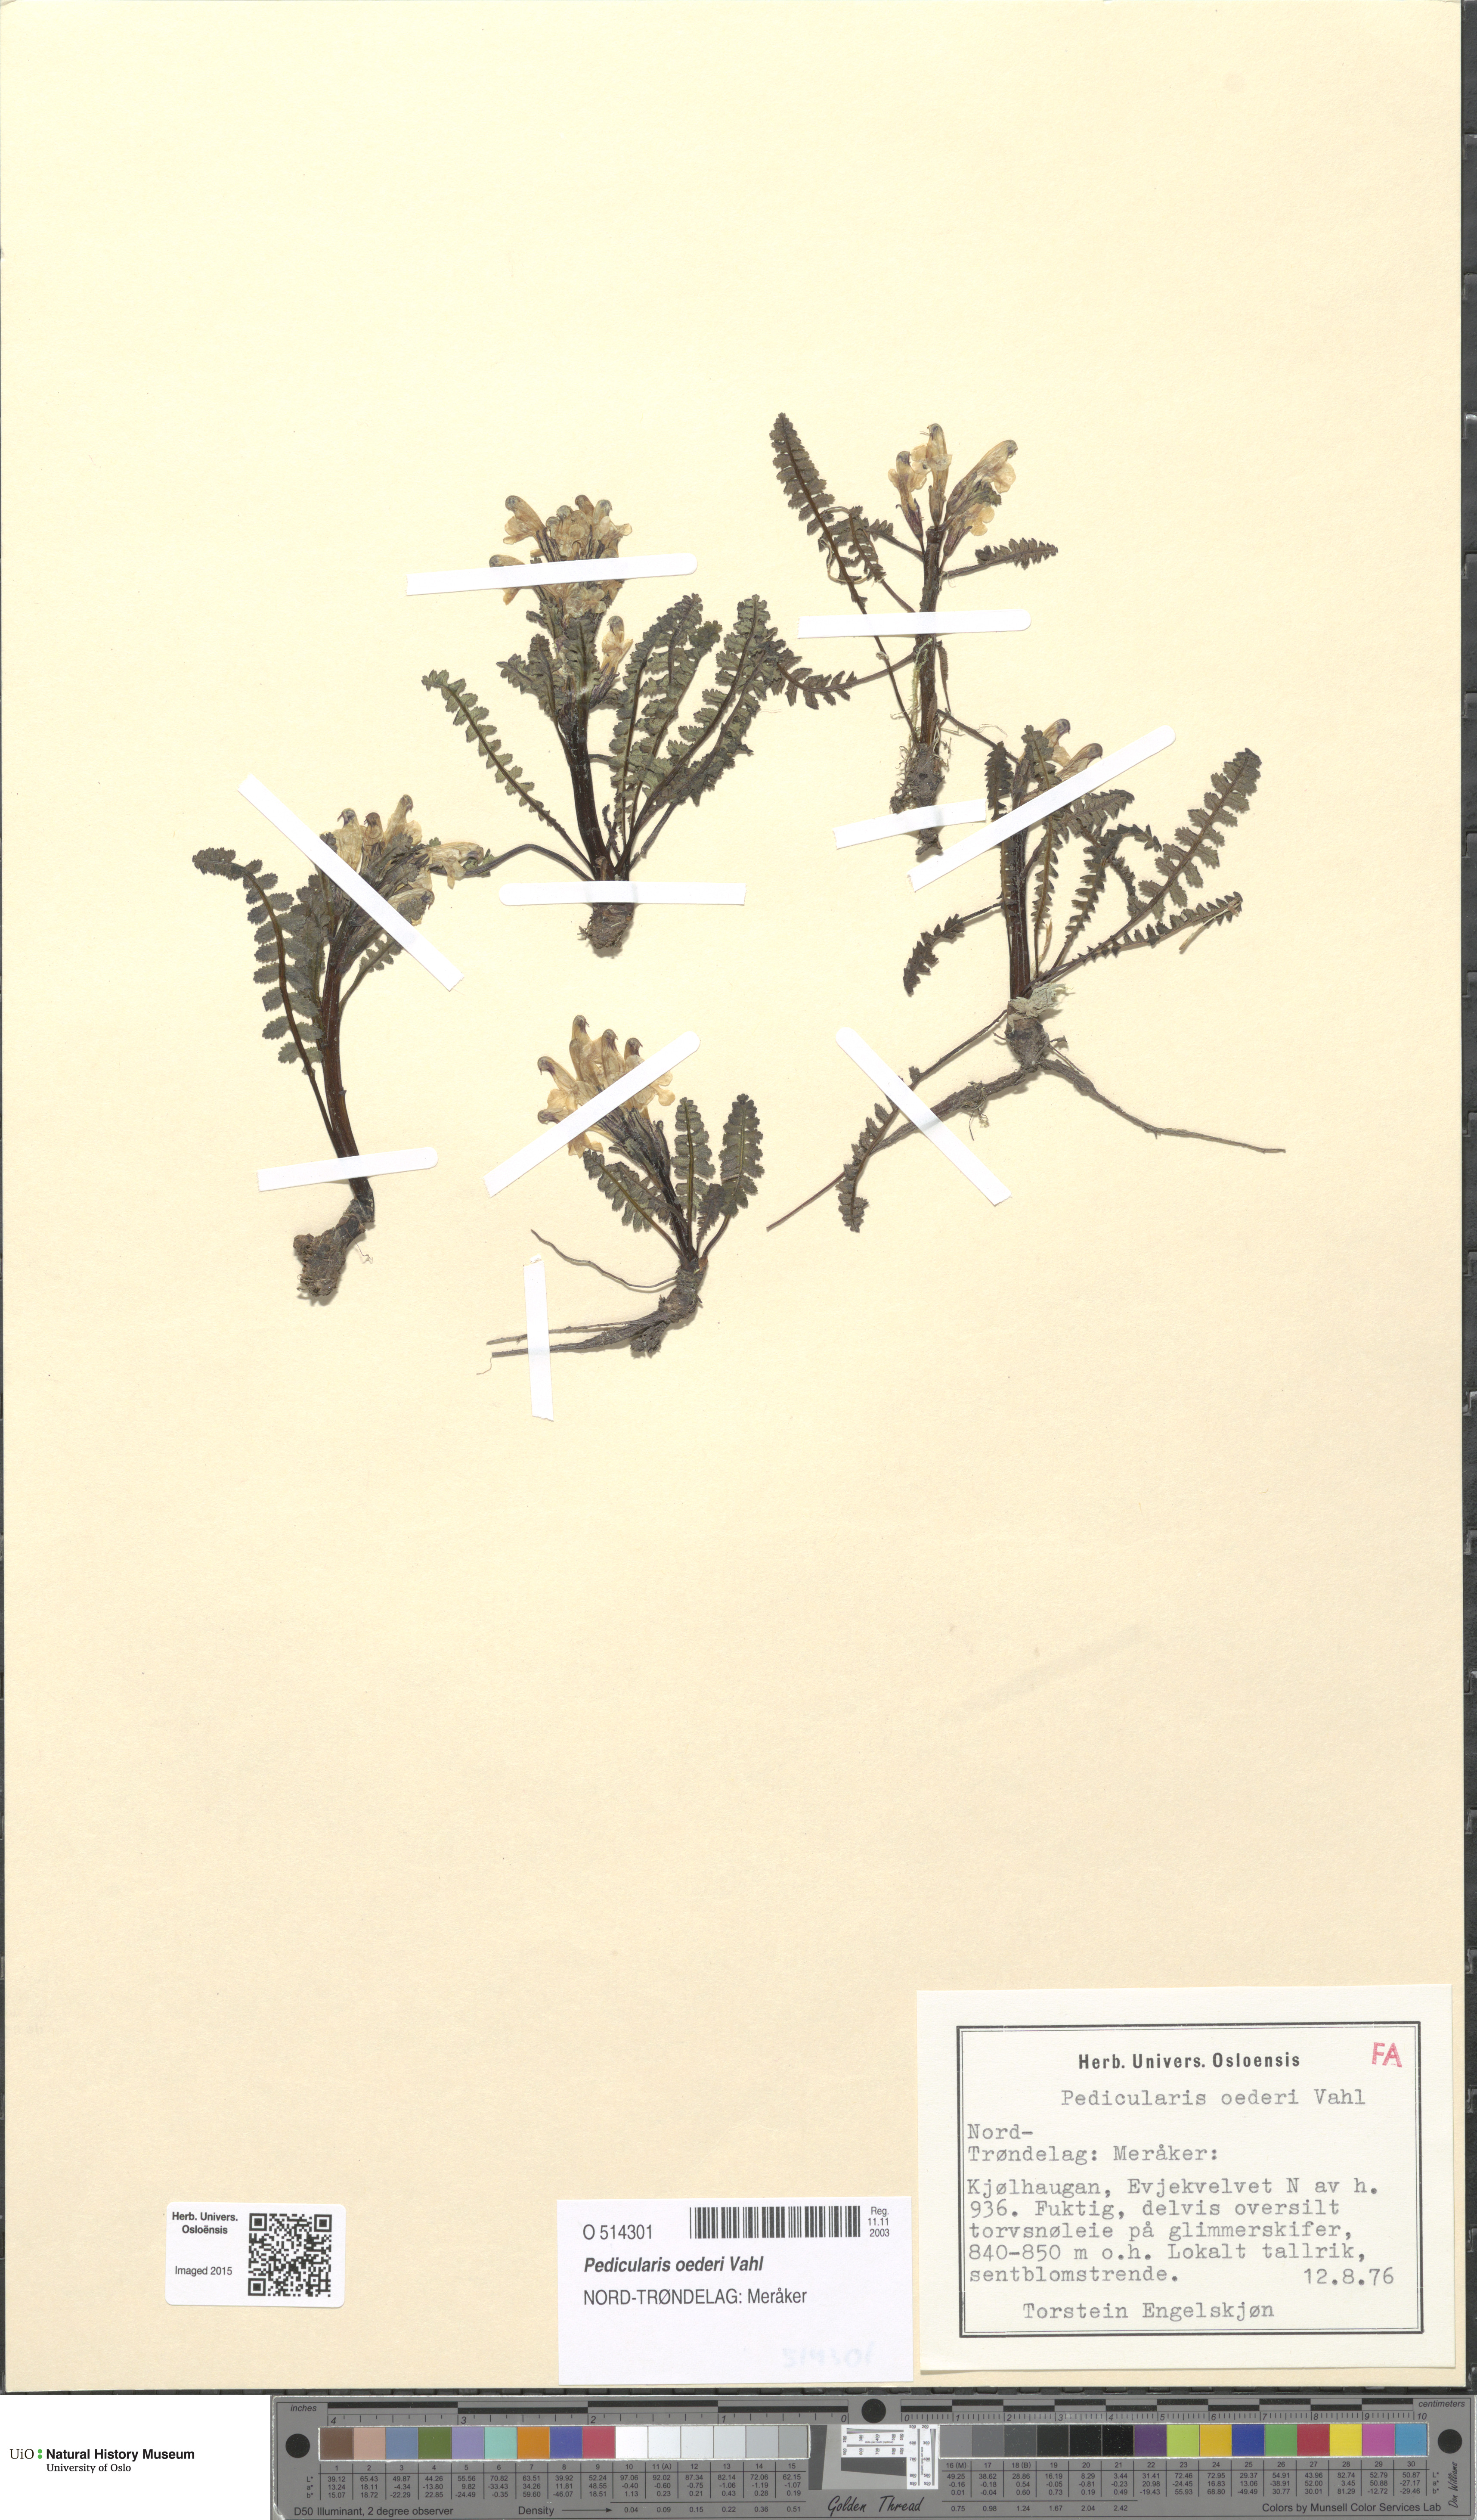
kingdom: Plantae
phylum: Tracheophyta
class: Magnoliopsida
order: Lamiales
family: Orobanchaceae
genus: Pedicularis
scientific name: Pedicularis oederi
